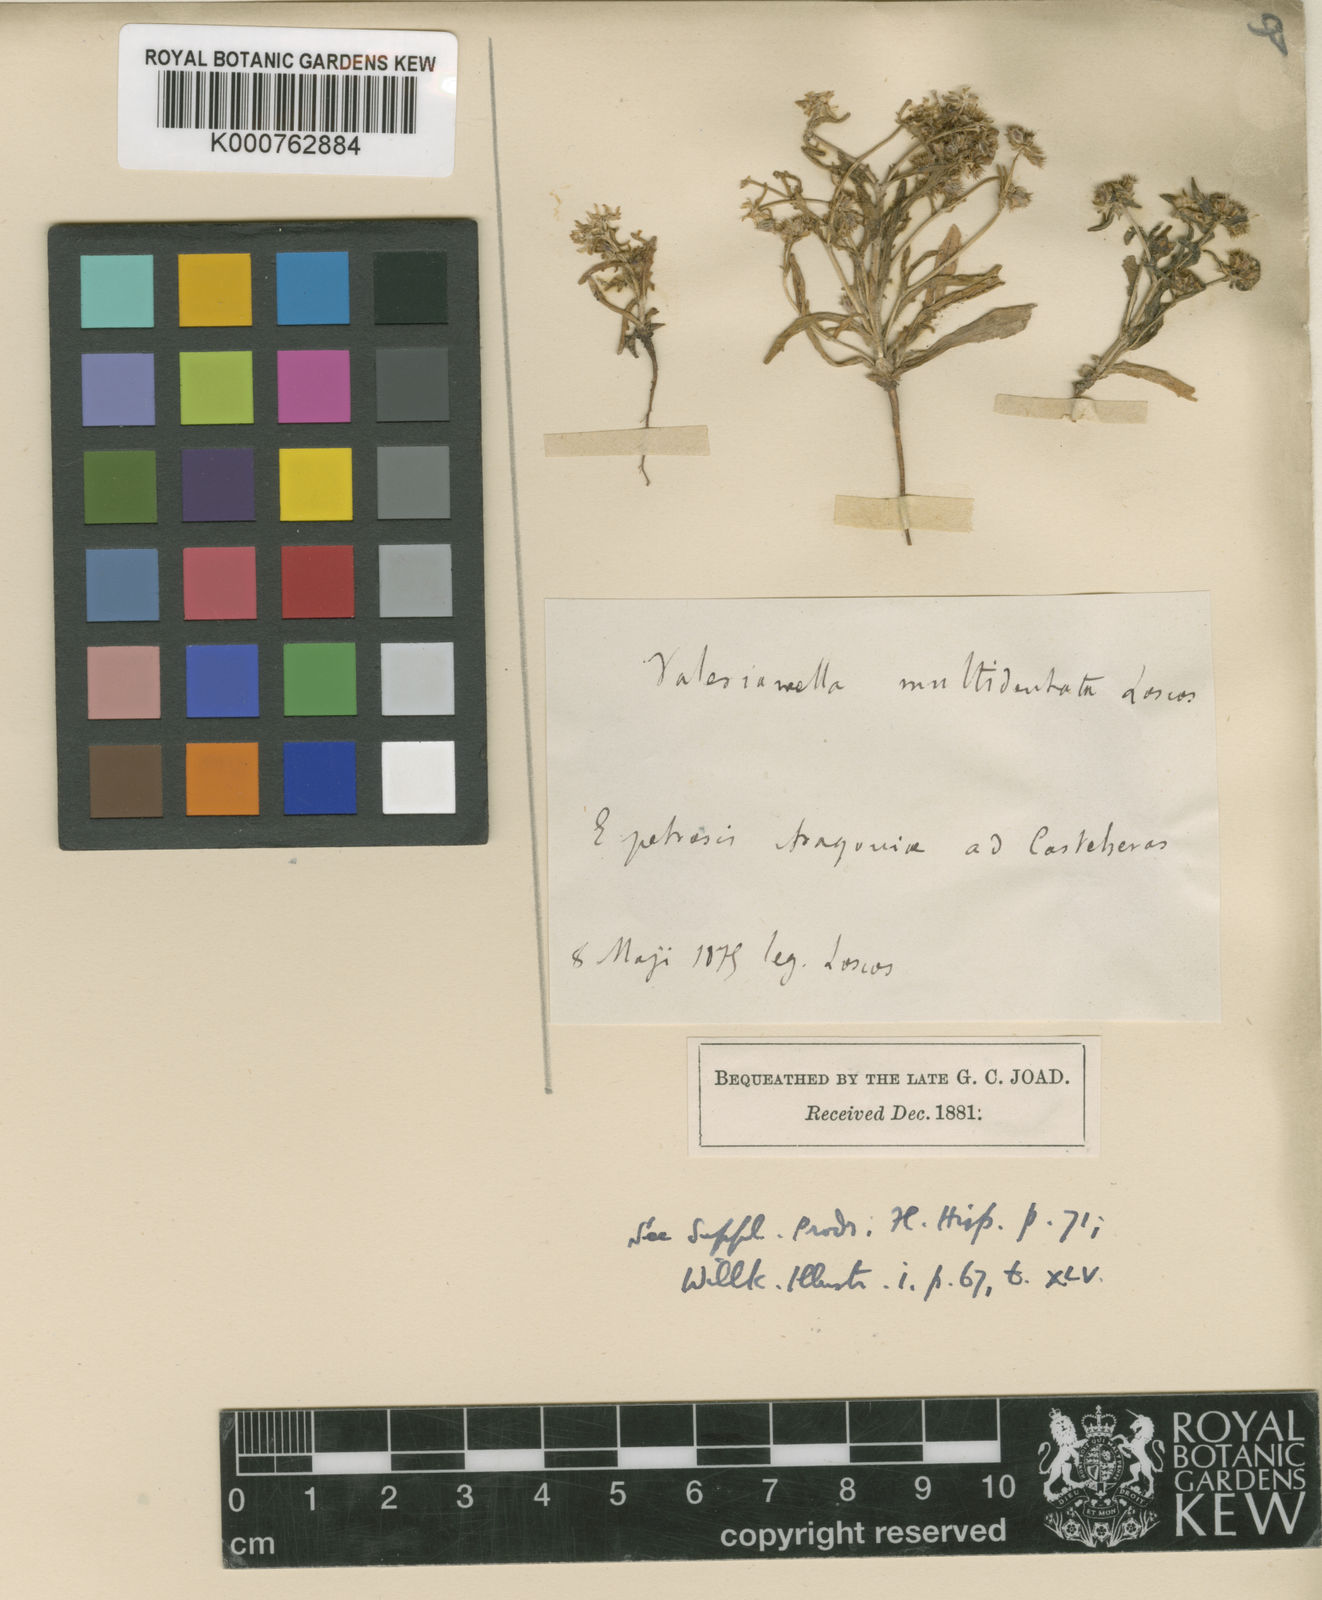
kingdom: Plantae
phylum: Tracheophyta
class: Magnoliopsida
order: Dipsacales
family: Caprifoliaceae
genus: Valerianella
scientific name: Valerianella multidentata
